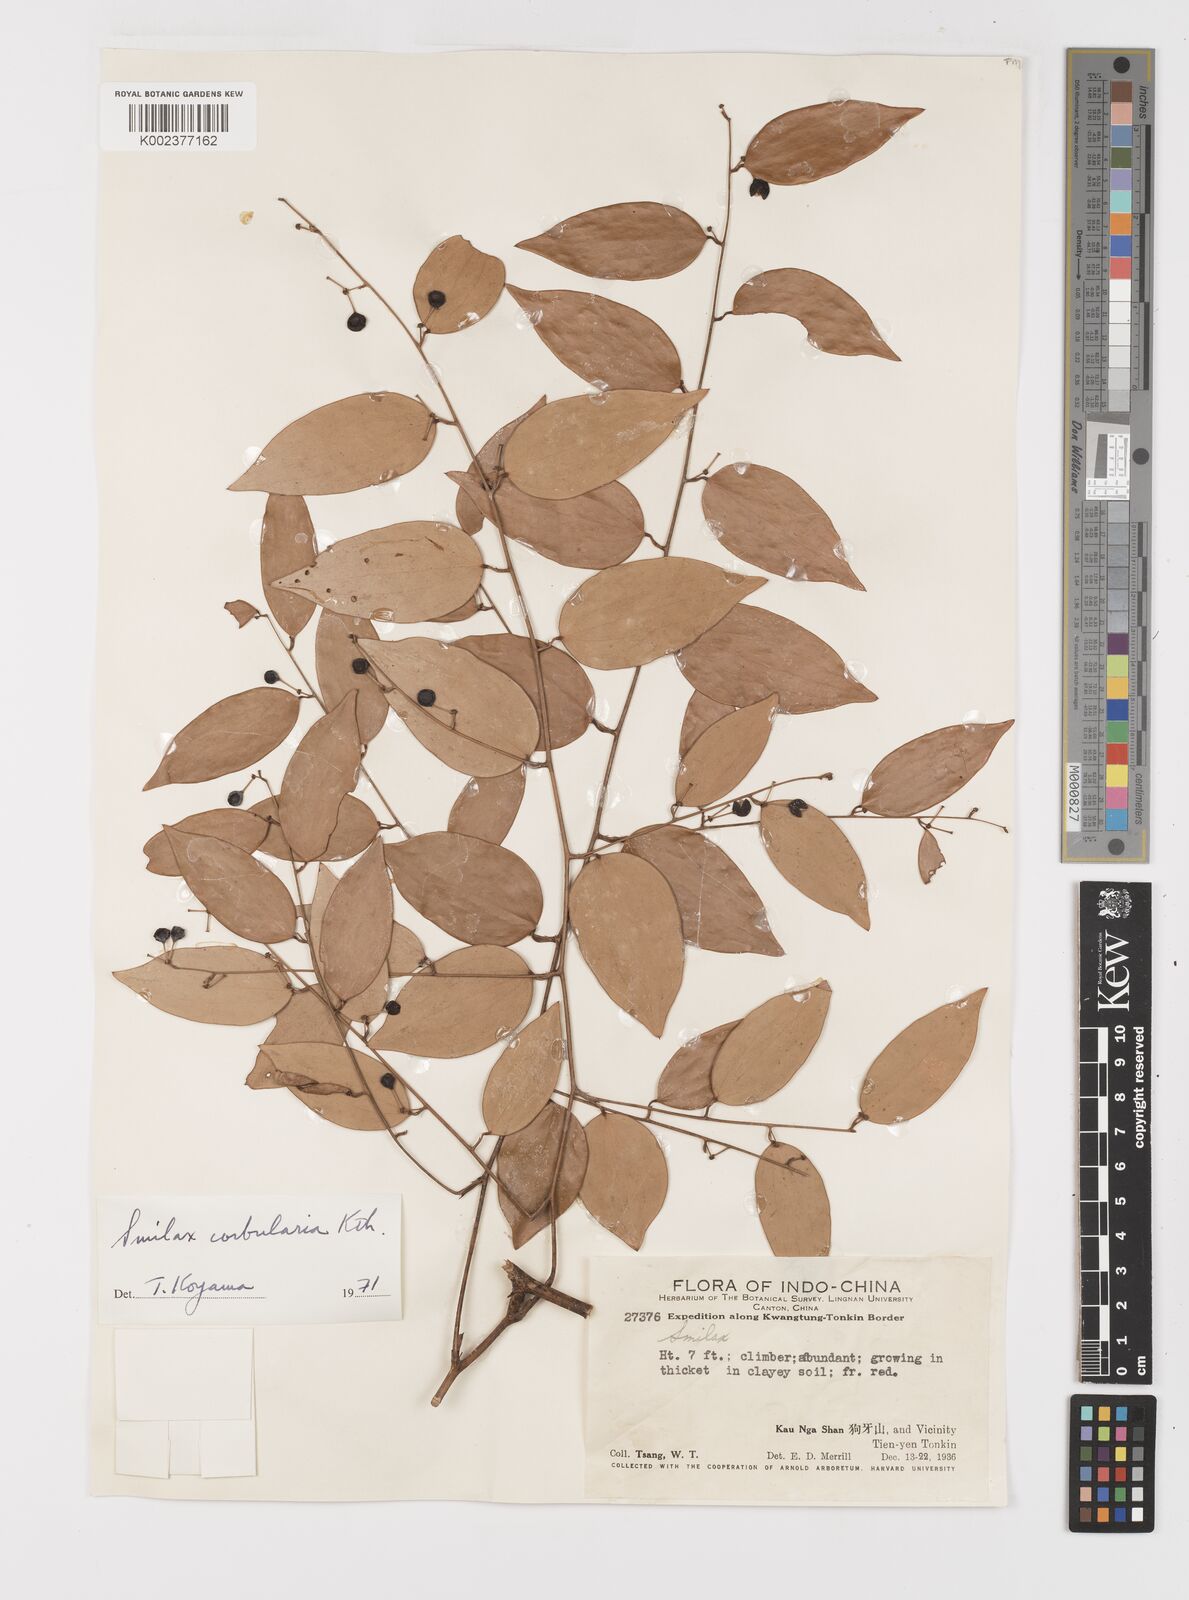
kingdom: Plantae
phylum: Tracheophyta
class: Liliopsida
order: Liliales
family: Smilacaceae
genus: Smilax
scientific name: Smilax corbularia
